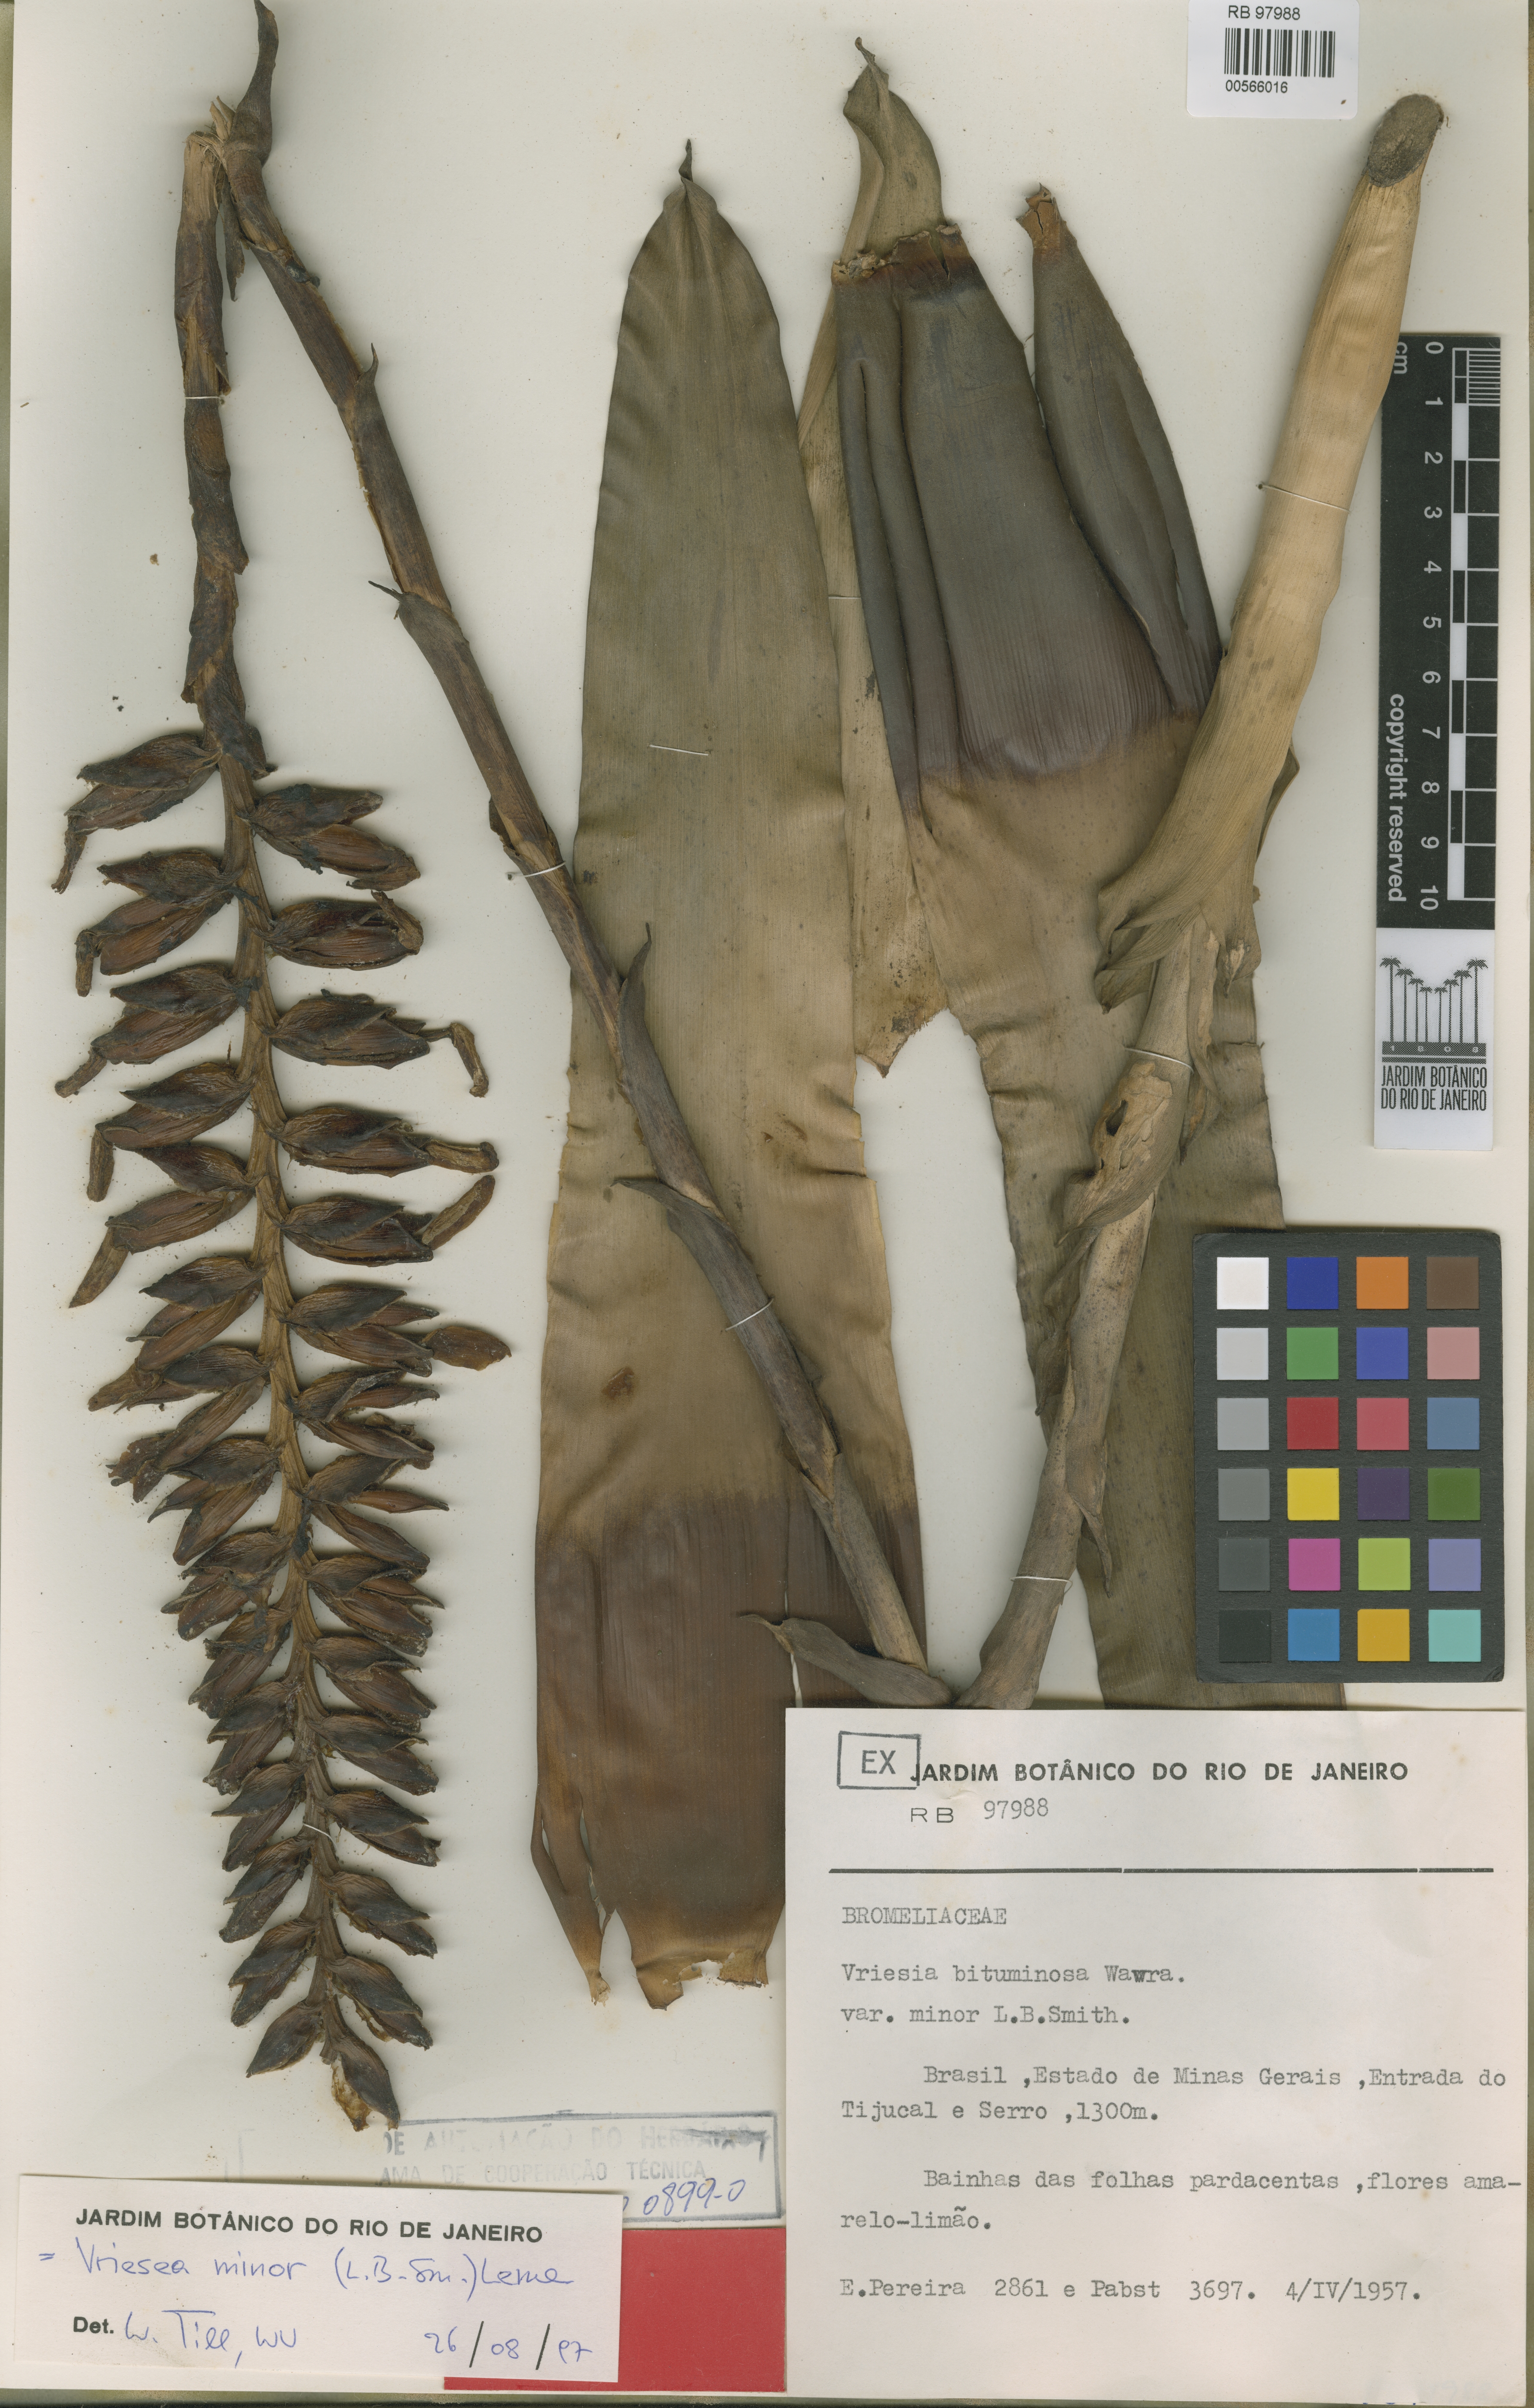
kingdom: Plantae
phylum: Tracheophyta
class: Liliopsida
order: Poales
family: Bromeliaceae
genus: Vriesea
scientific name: Vriesea minor
